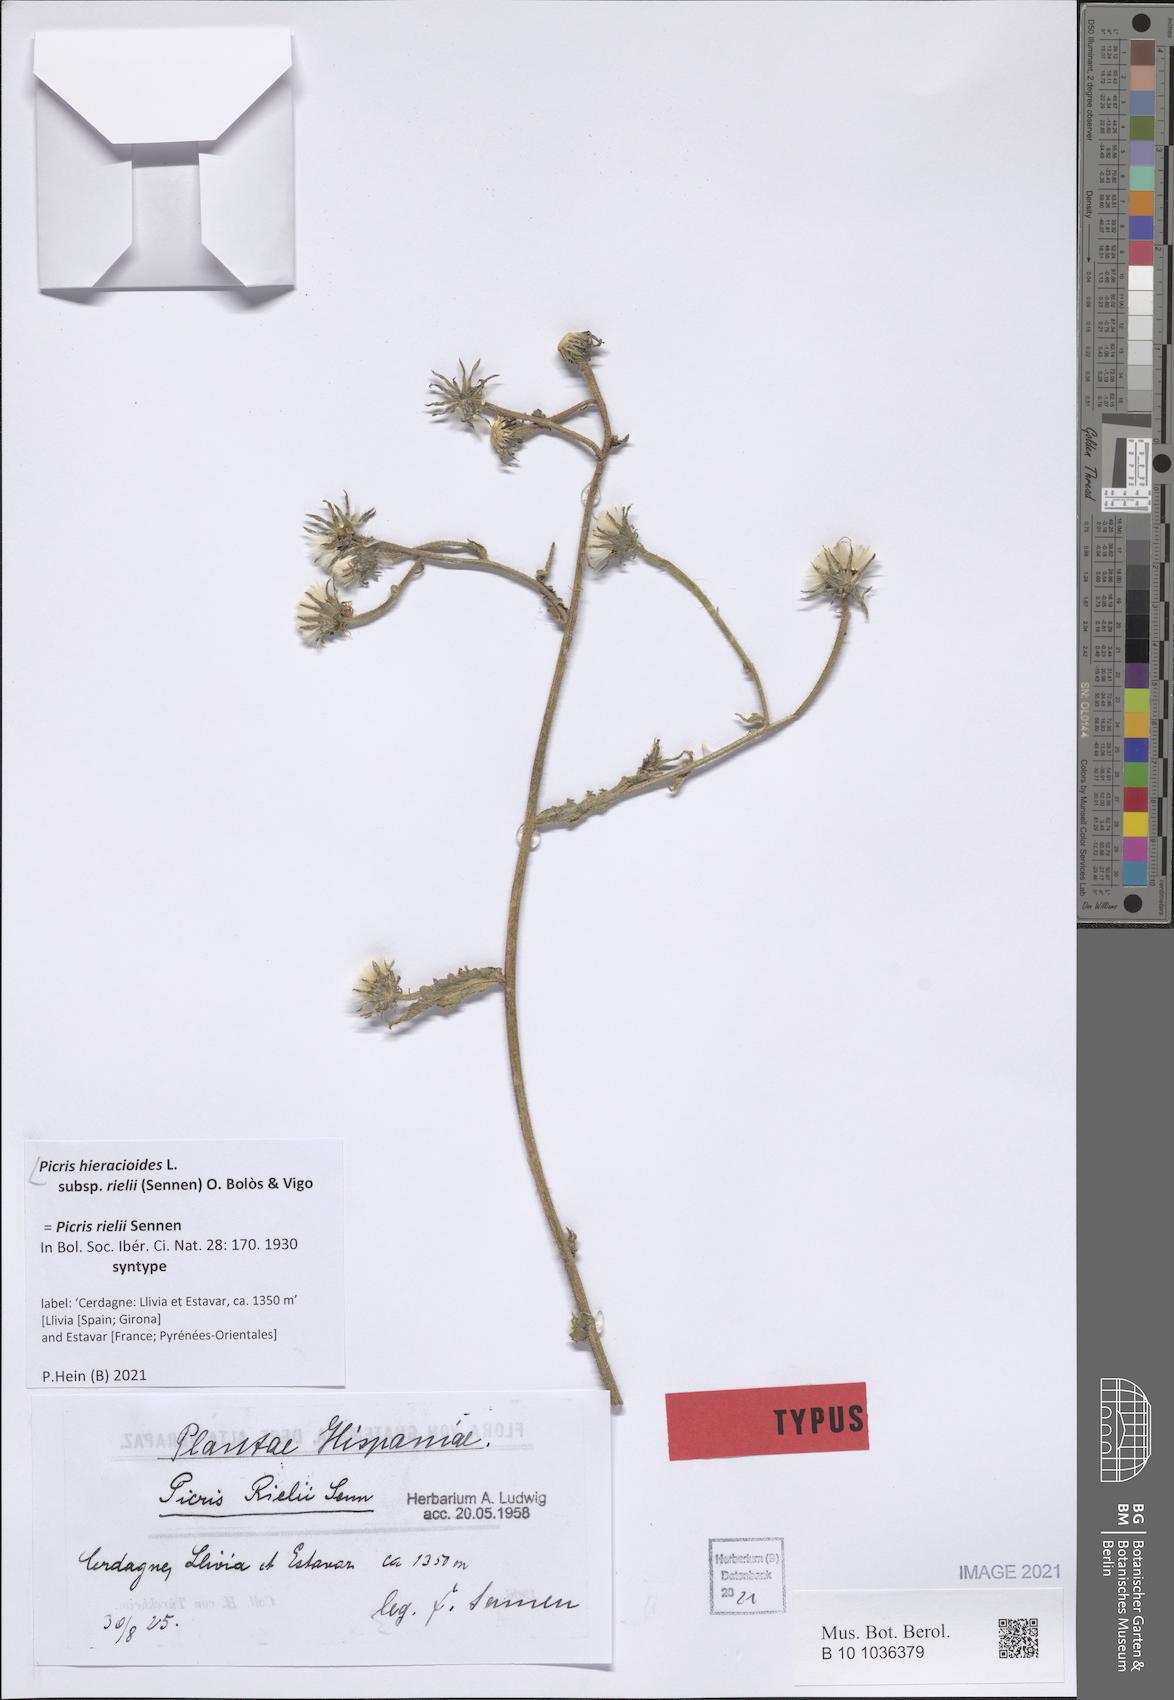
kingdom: Plantae
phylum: Tracheophyta
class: Magnoliopsida
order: Asterales
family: Asteraceae
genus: Picris
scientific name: Picris hieracioides
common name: Hawkweed oxtongue
